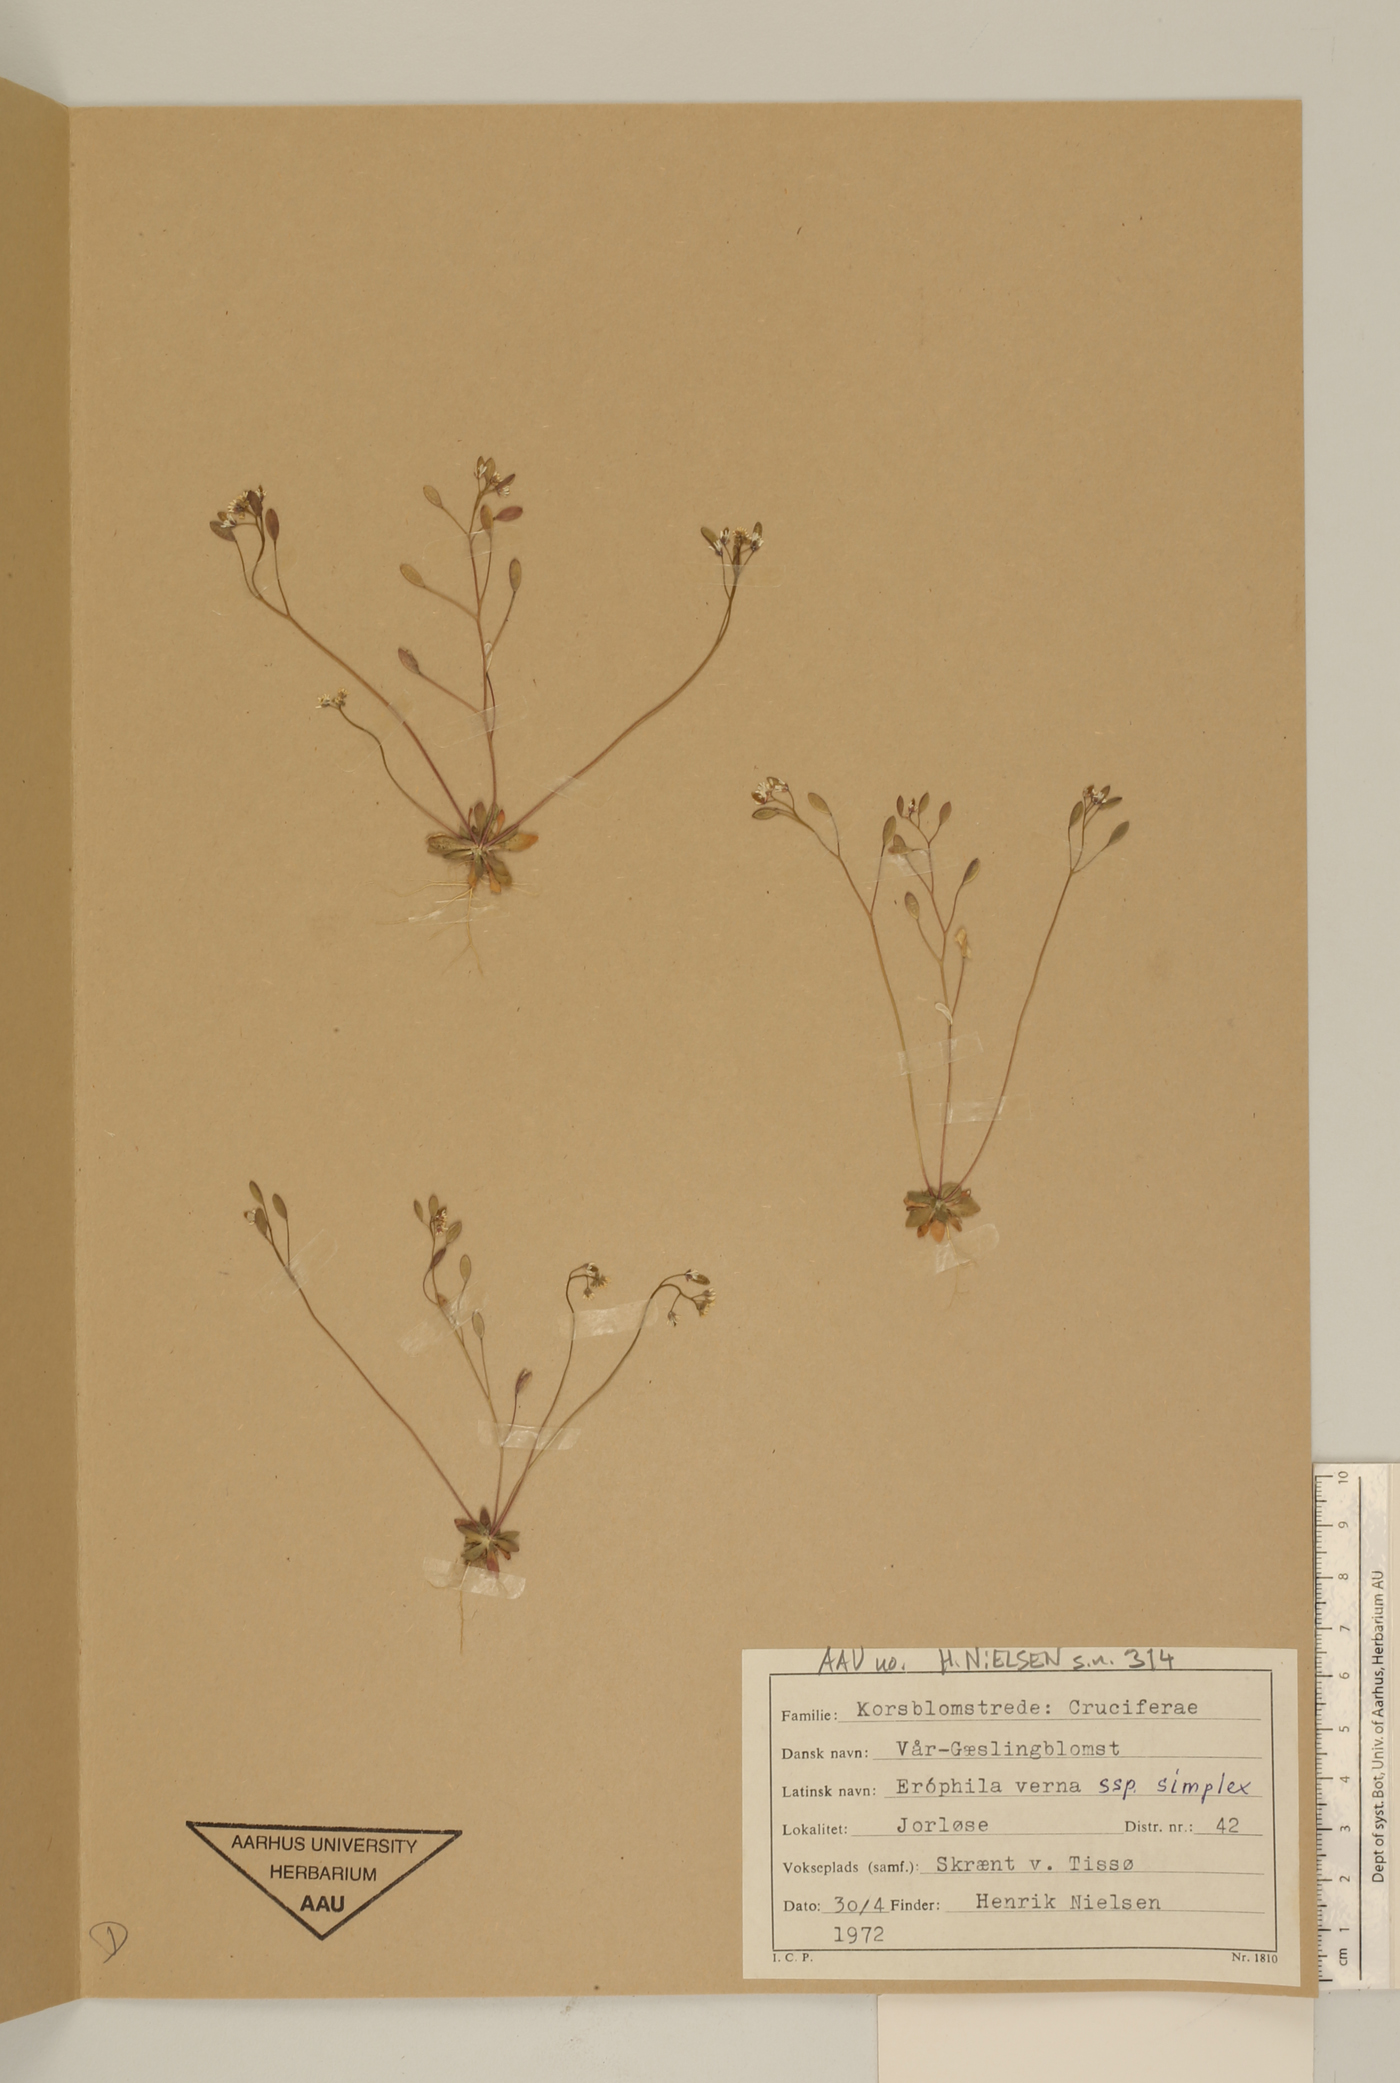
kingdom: Plantae
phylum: Tracheophyta
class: Magnoliopsida
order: Brassicales
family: Brassicaceae
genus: Draba
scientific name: Draba verna
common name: Spring draba
